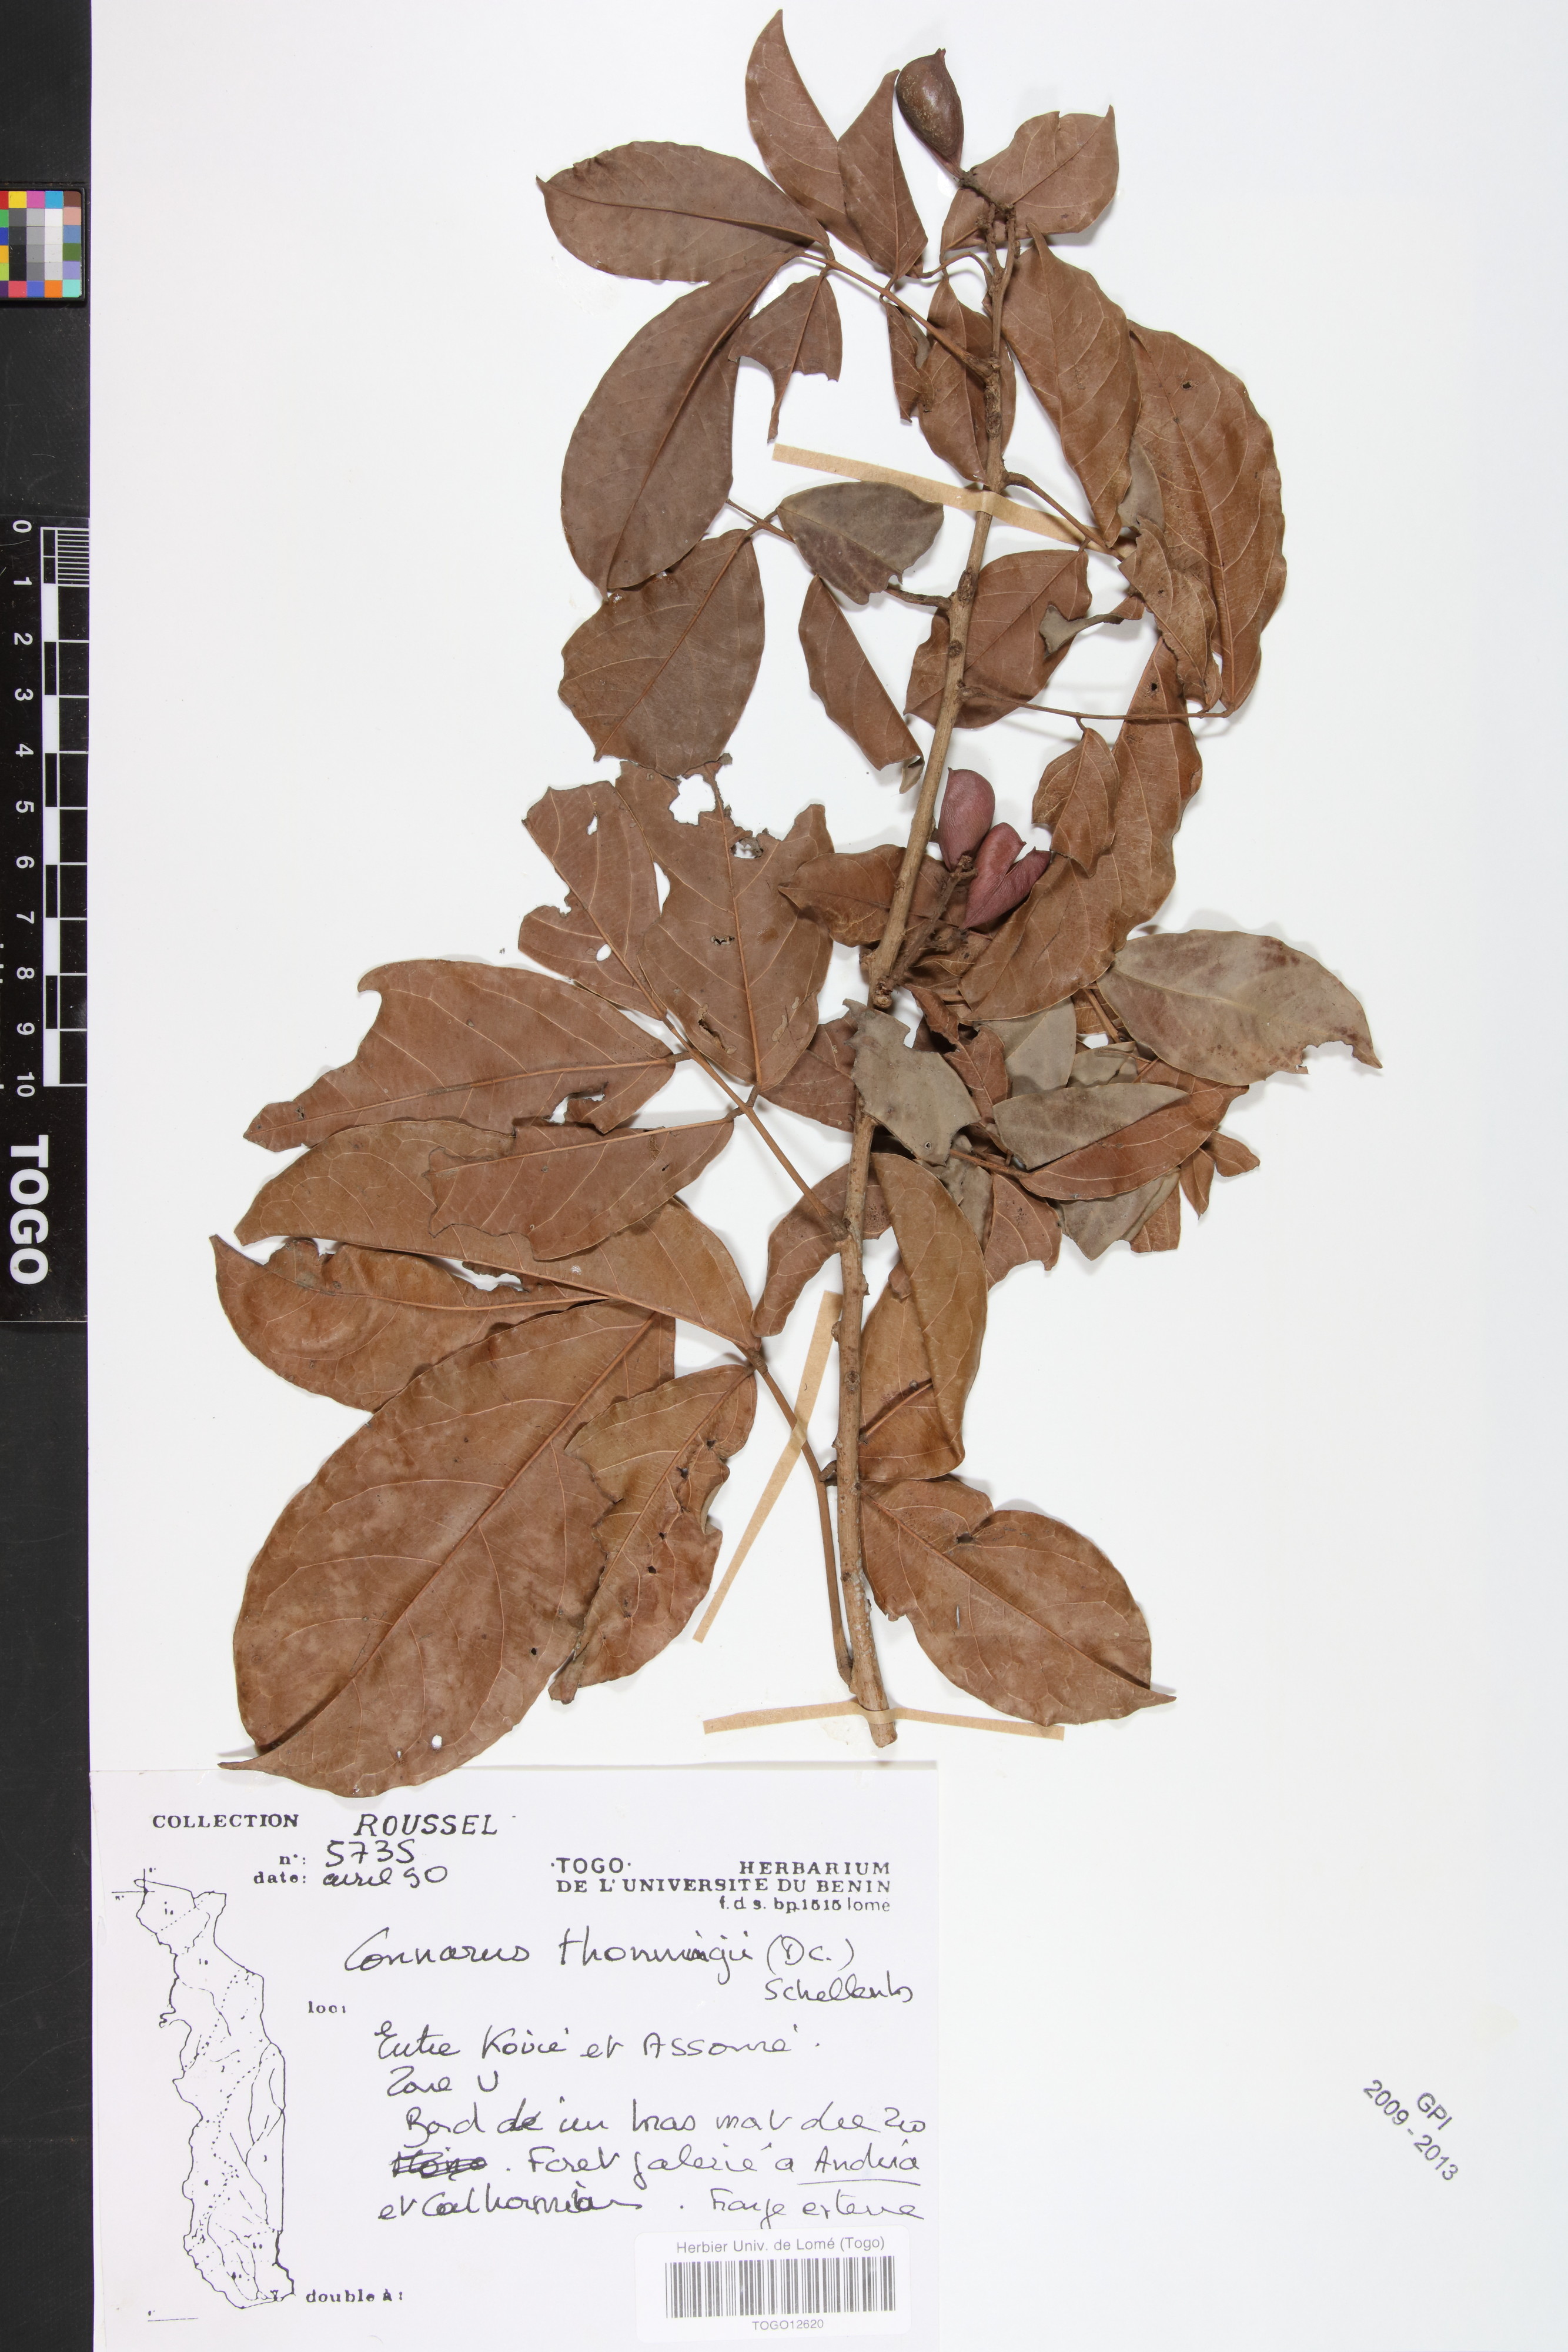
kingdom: Plantae
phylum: Tracheophyta
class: Magnoliopsida
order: Oxalidales
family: Connaraceae
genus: Connarus
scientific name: Connarus thonningii
